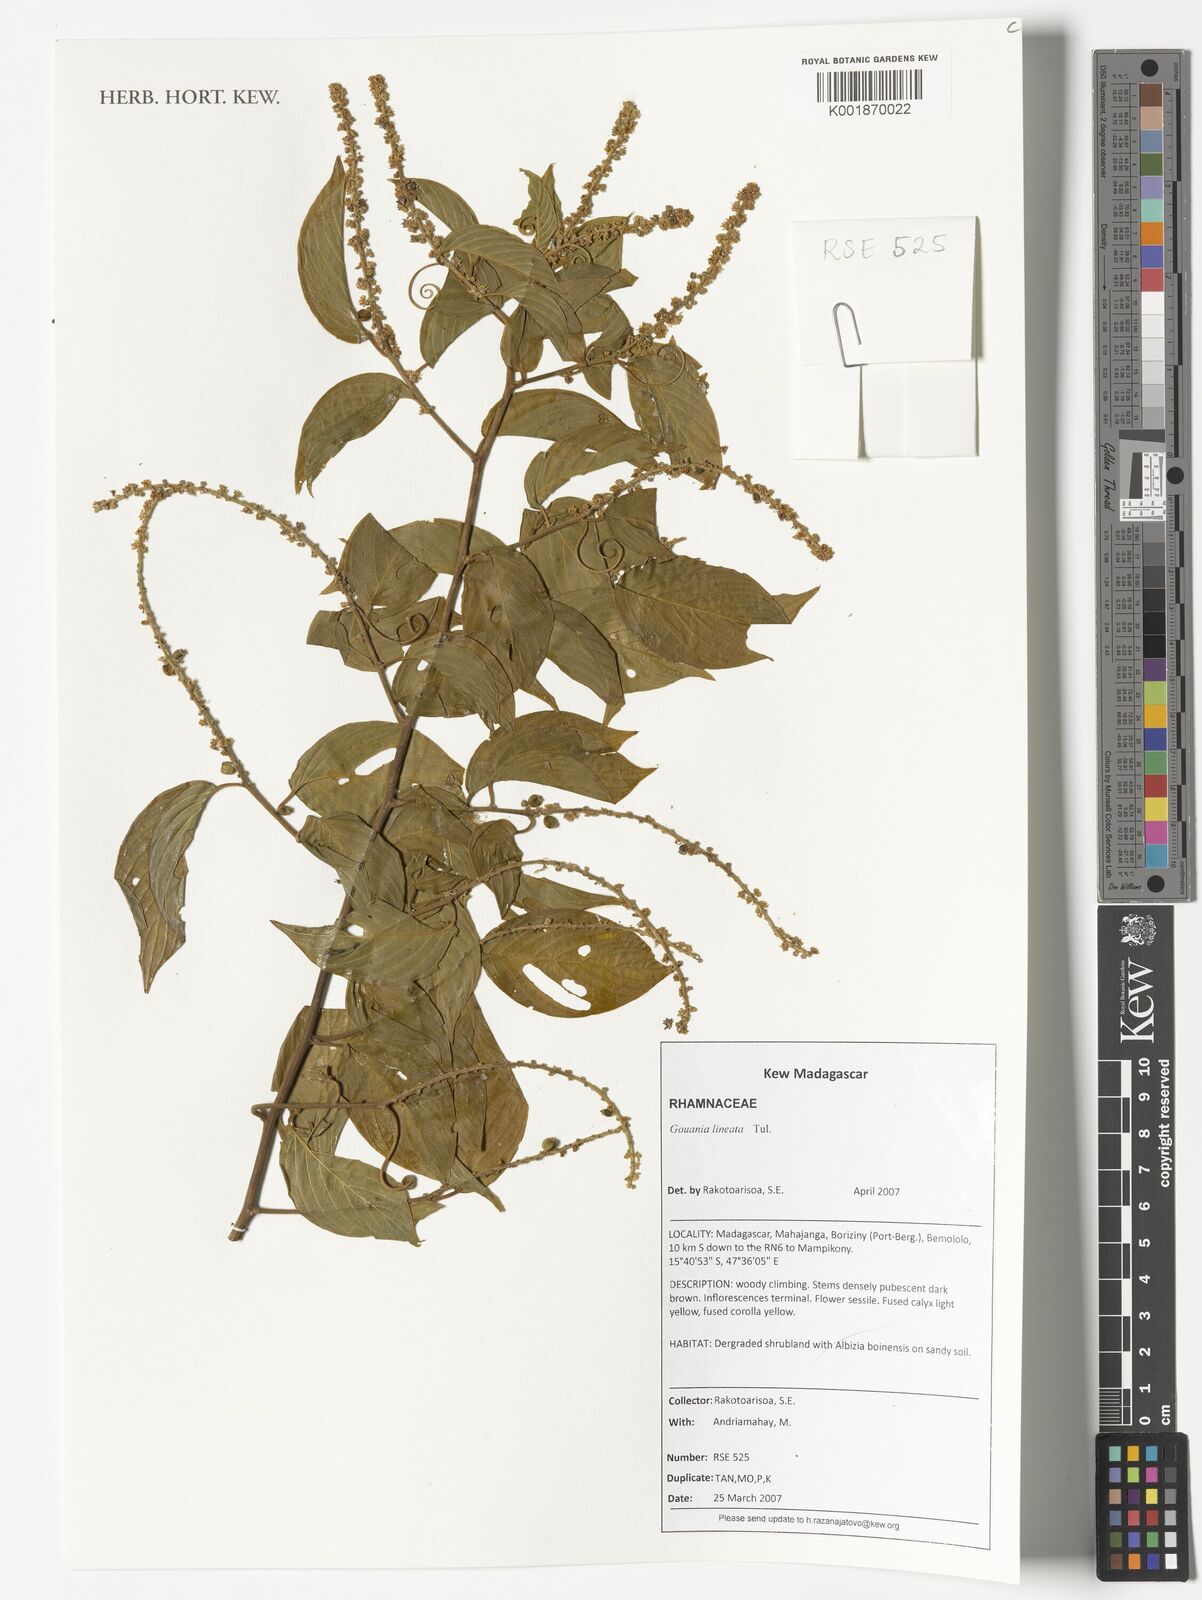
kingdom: Plantae
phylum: Tracheophyta
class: Magnoliopsida
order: Rosales
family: Rhamnaceae
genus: Gouania
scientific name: Gouania lineata
